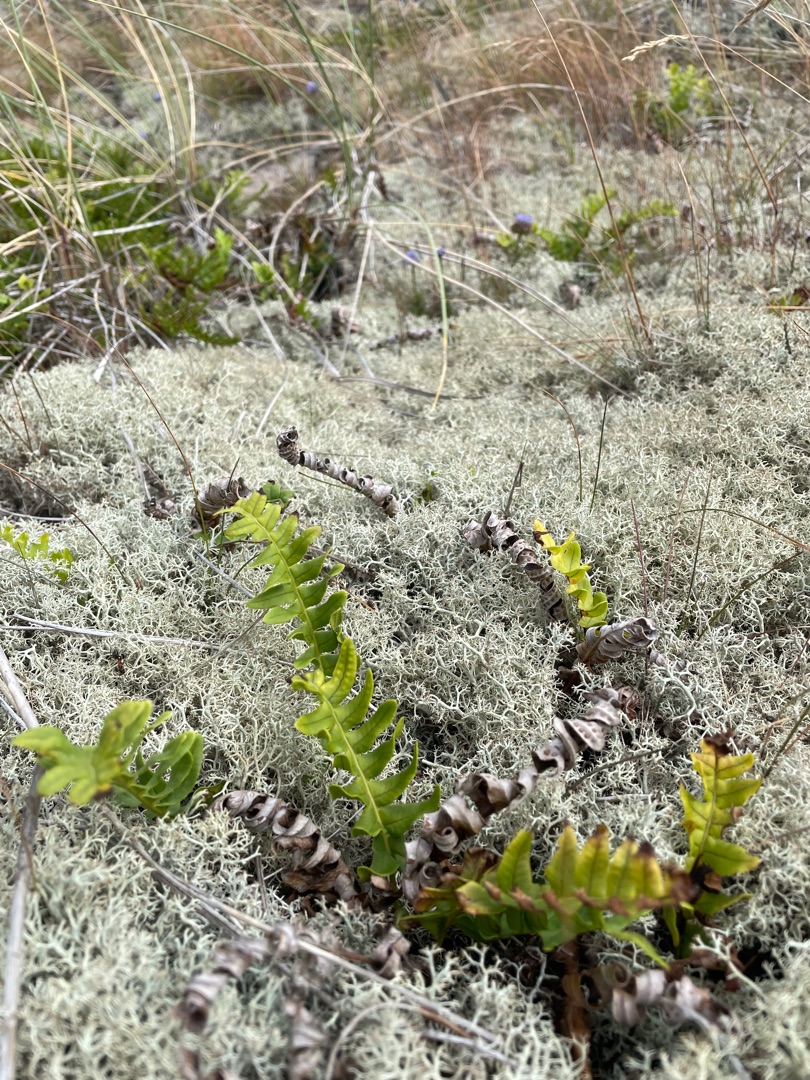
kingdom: Plantae
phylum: Tracheophyta
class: Polypodiopsida
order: Polypodiales
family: Polypodiaceae
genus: Polypodium
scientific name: Polypodium vulgare
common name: Almindelig engelsød
